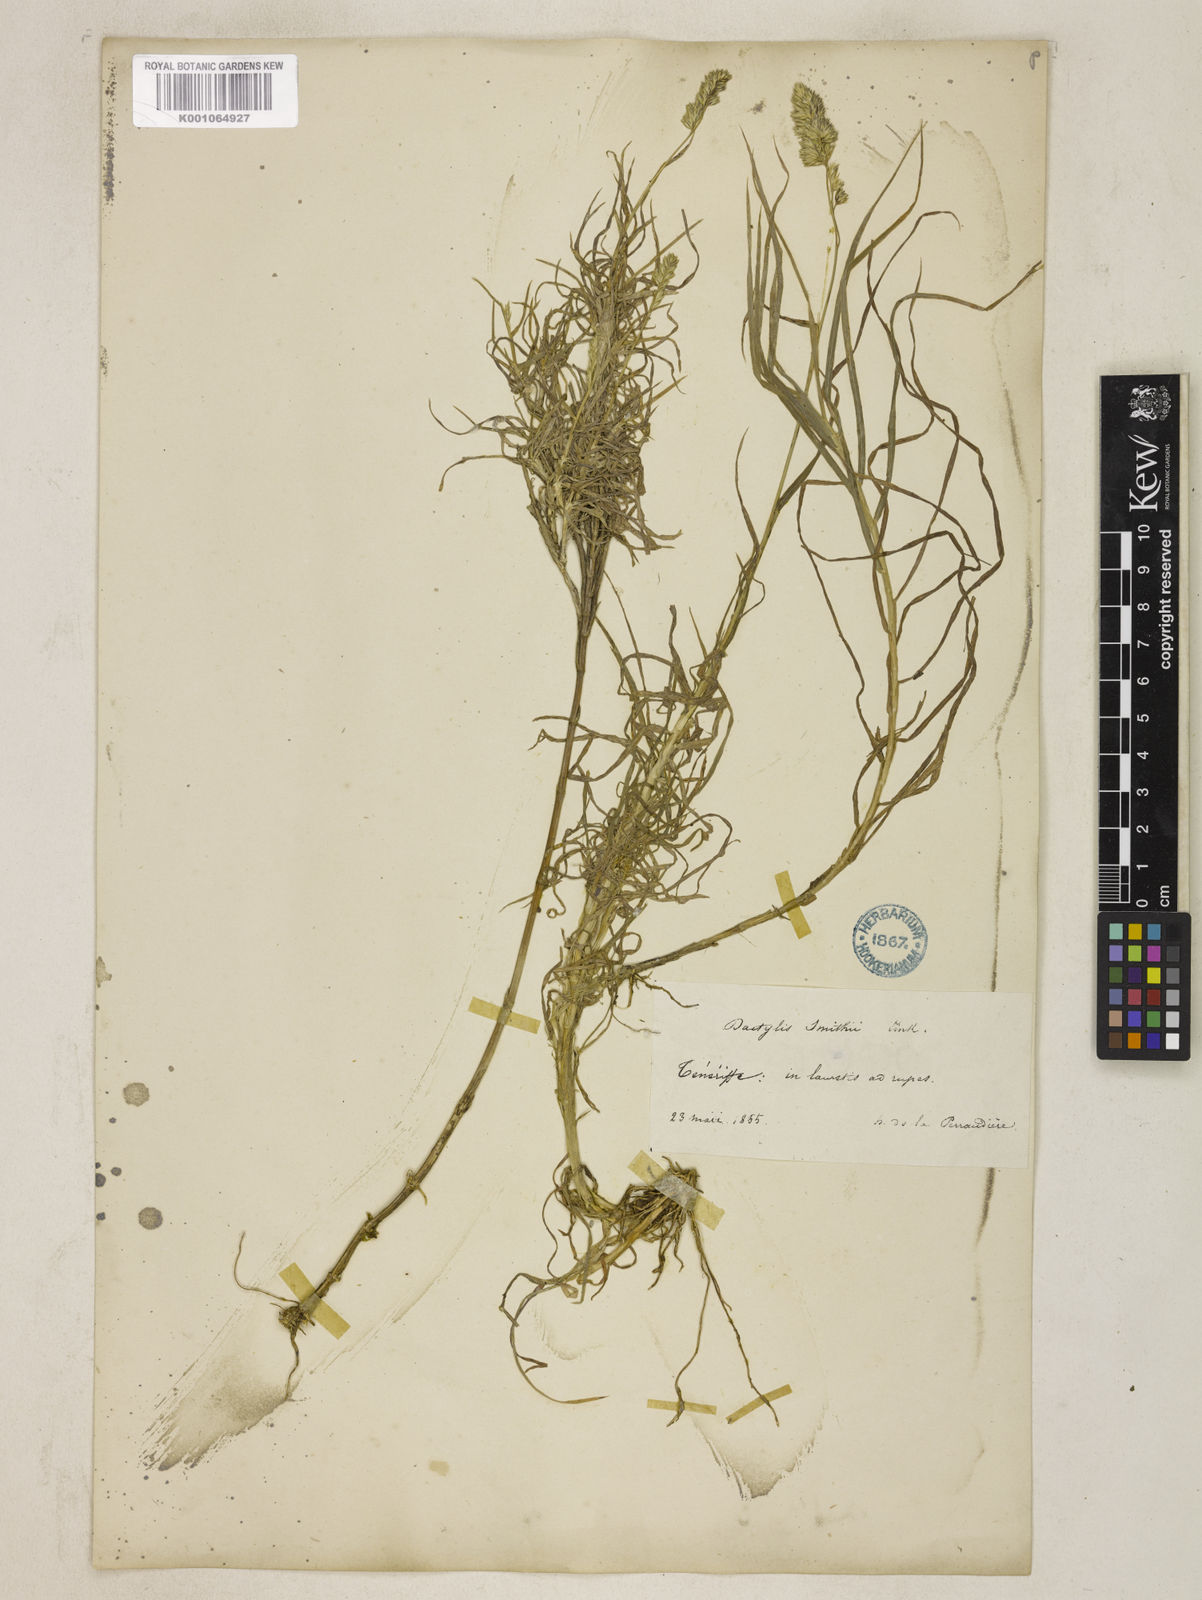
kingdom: Plantae
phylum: Tracheophyta
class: Liliopsida
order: Poales
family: Poaceae
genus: Dactylis
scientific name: Dactylis glomerata
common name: Orchardgrass
